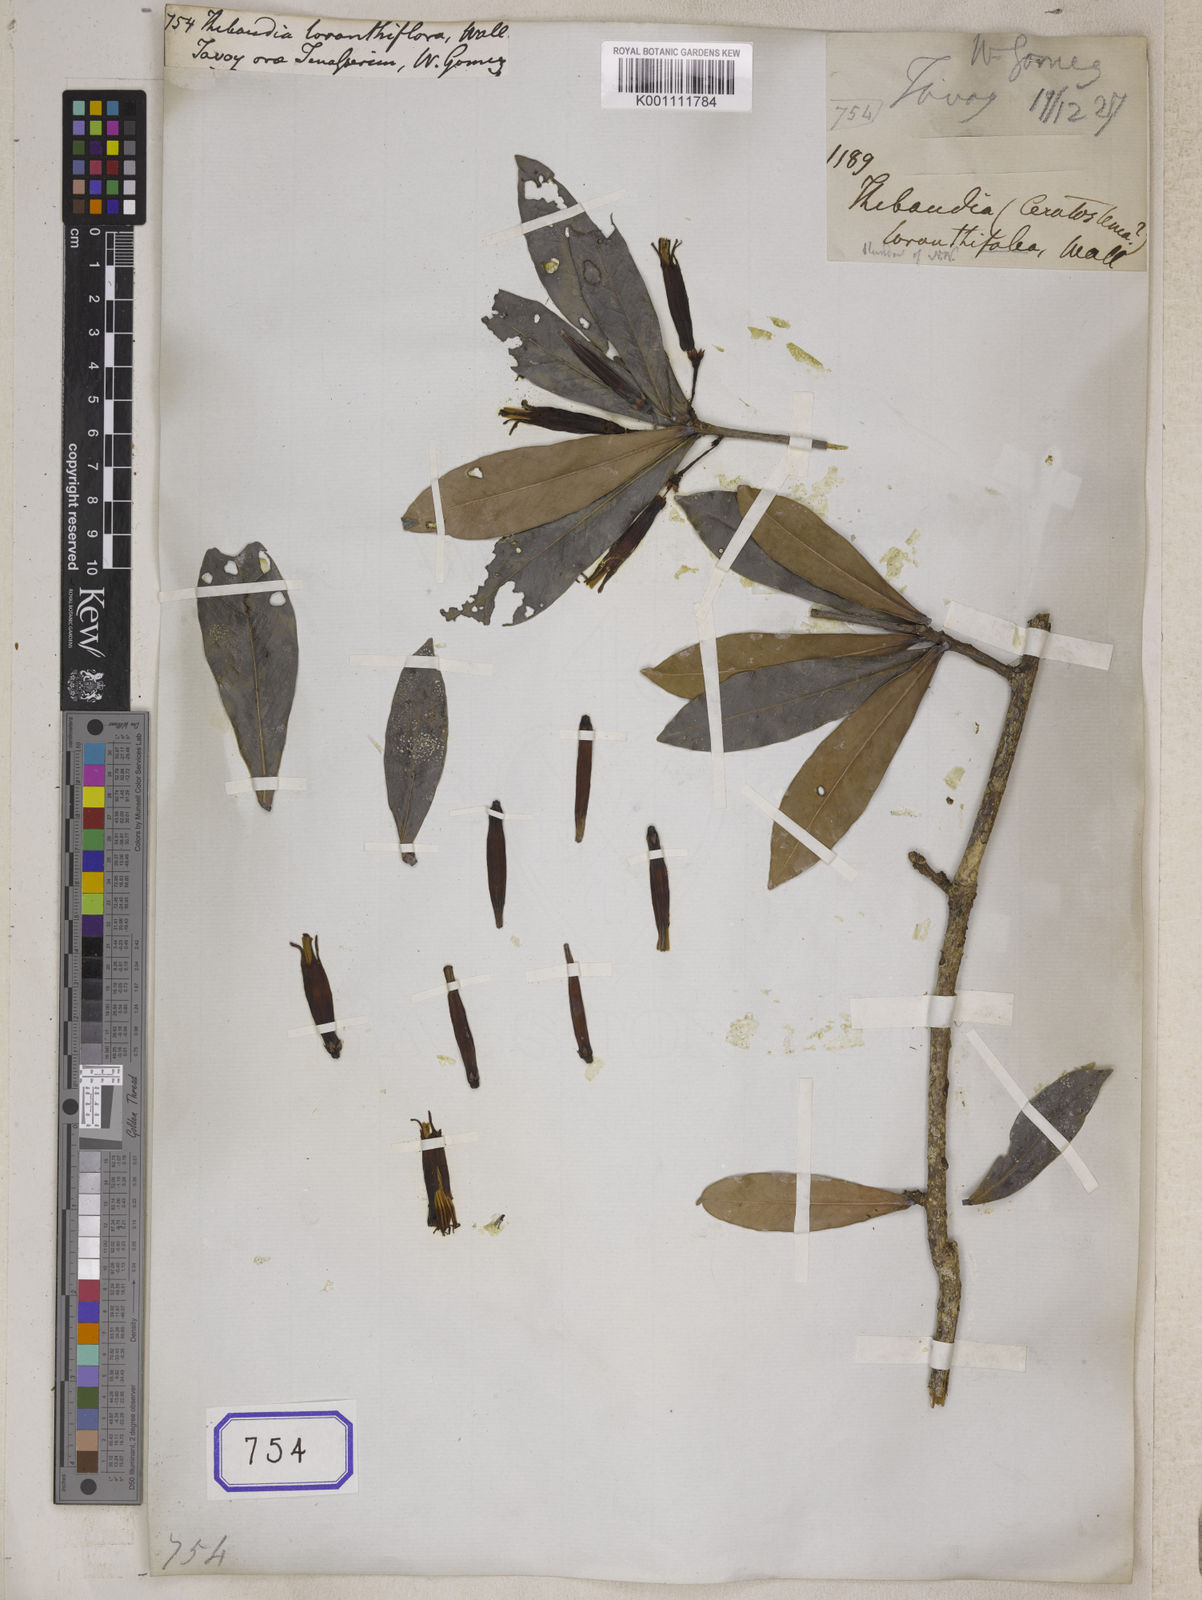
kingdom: Plantae
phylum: Tracheophyta
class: Magnoliopsida
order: Ericales
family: Ericaceae
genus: Agapetes
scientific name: Agapetes loranthiflora
